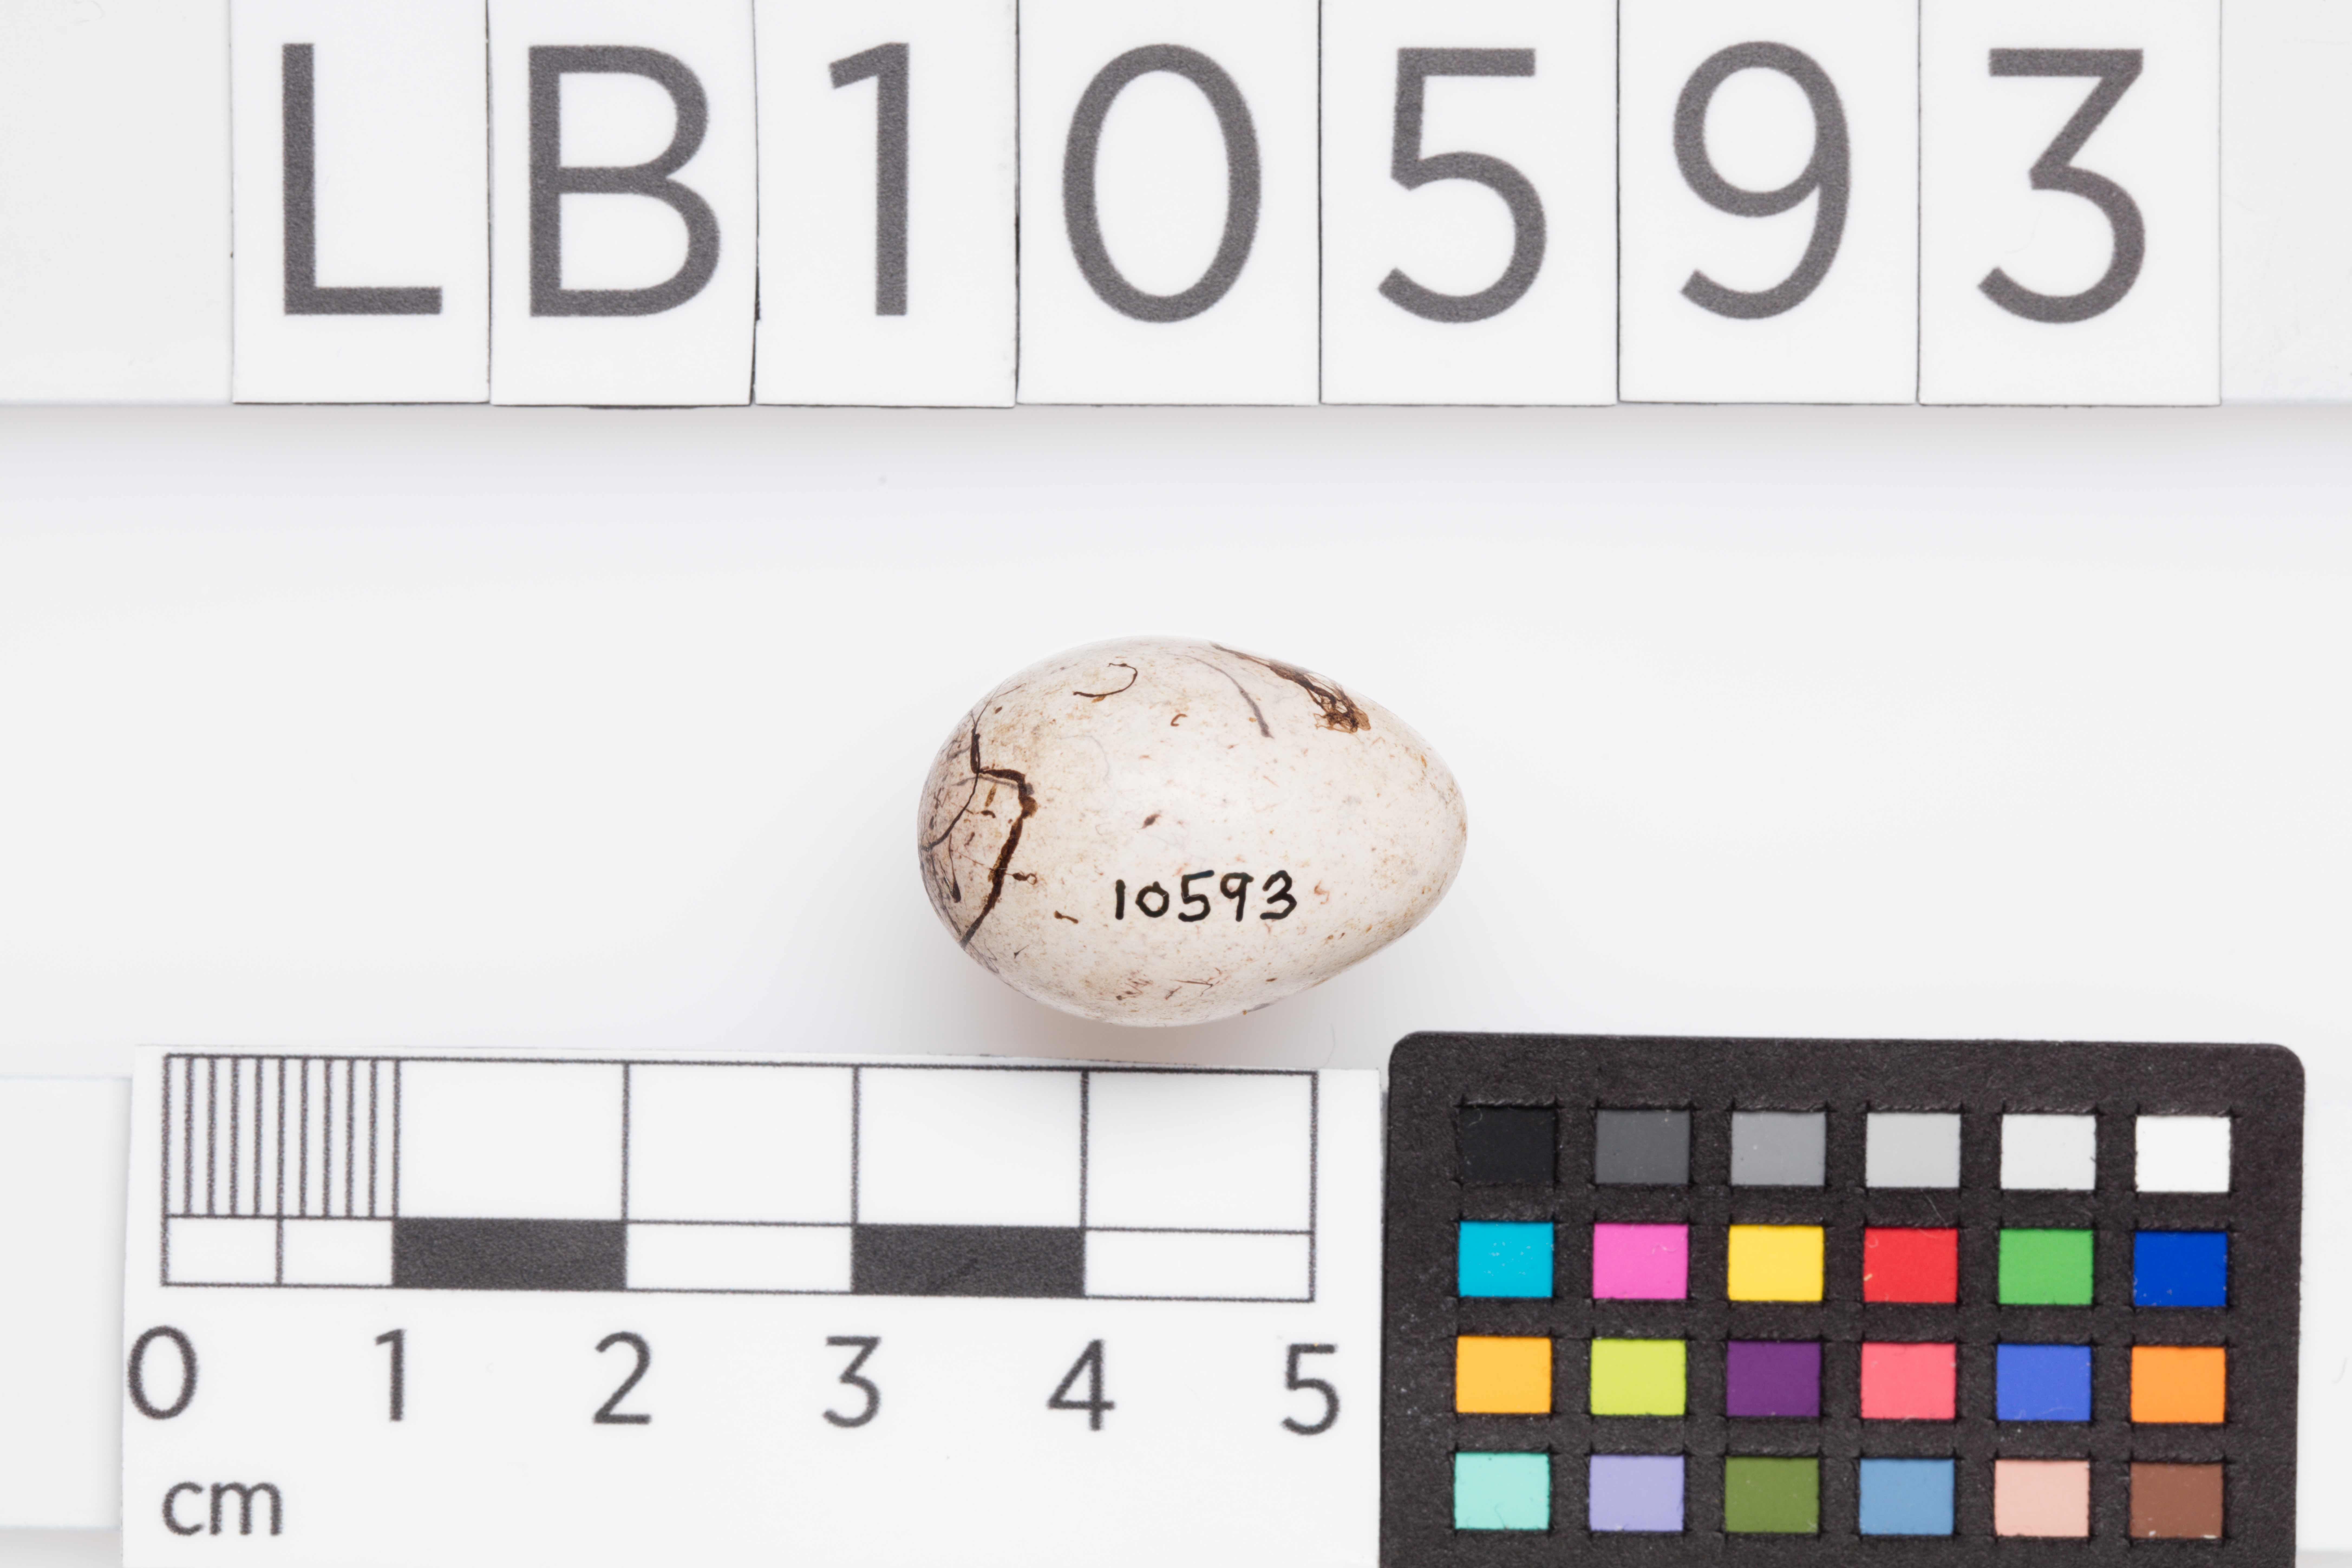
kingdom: Animalia
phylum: Chordata
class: Aves
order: Passeriformes
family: Emberizidae
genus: Emberiza
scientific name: Emberiza citrinella
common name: Yellowhammer
